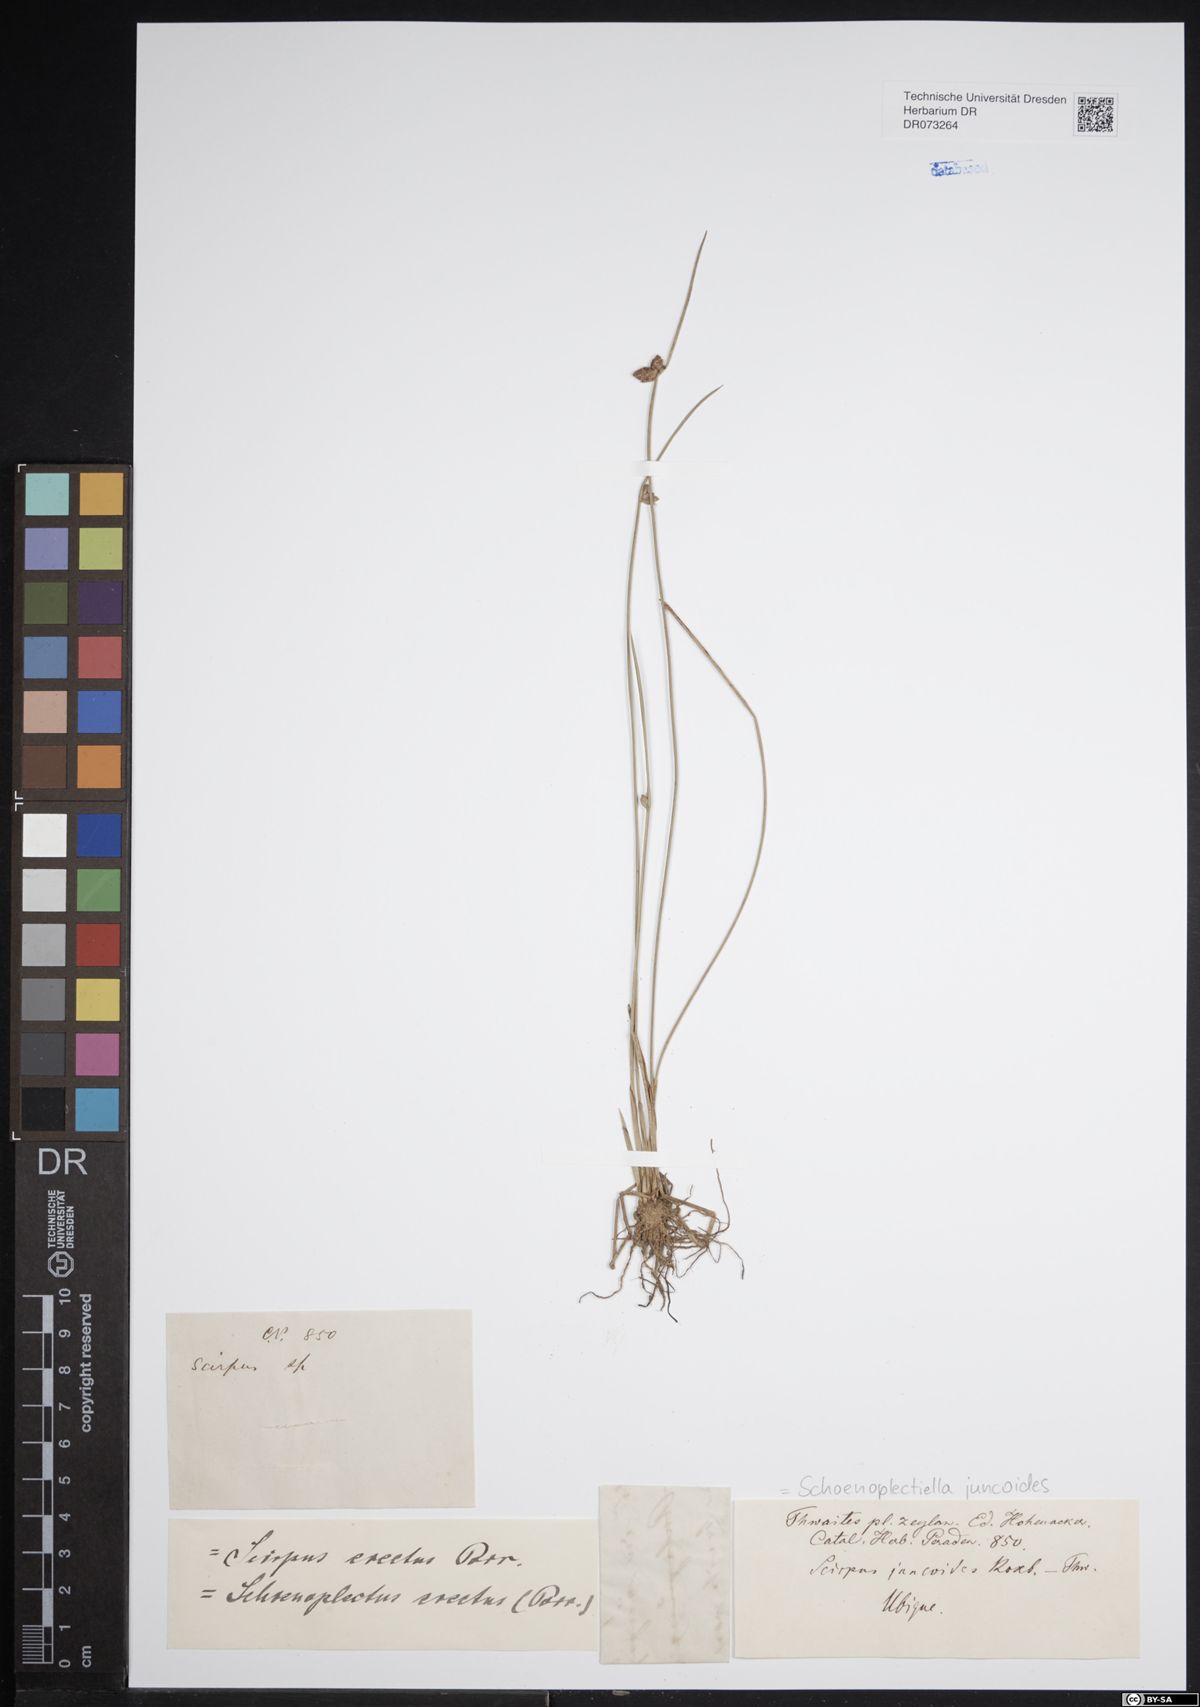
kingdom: Plantae
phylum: Tracheophyta
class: Liliopsida
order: Poales
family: Cyperaceae
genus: Schoenoplectiella
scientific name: Schoenoplectiella juncoides
